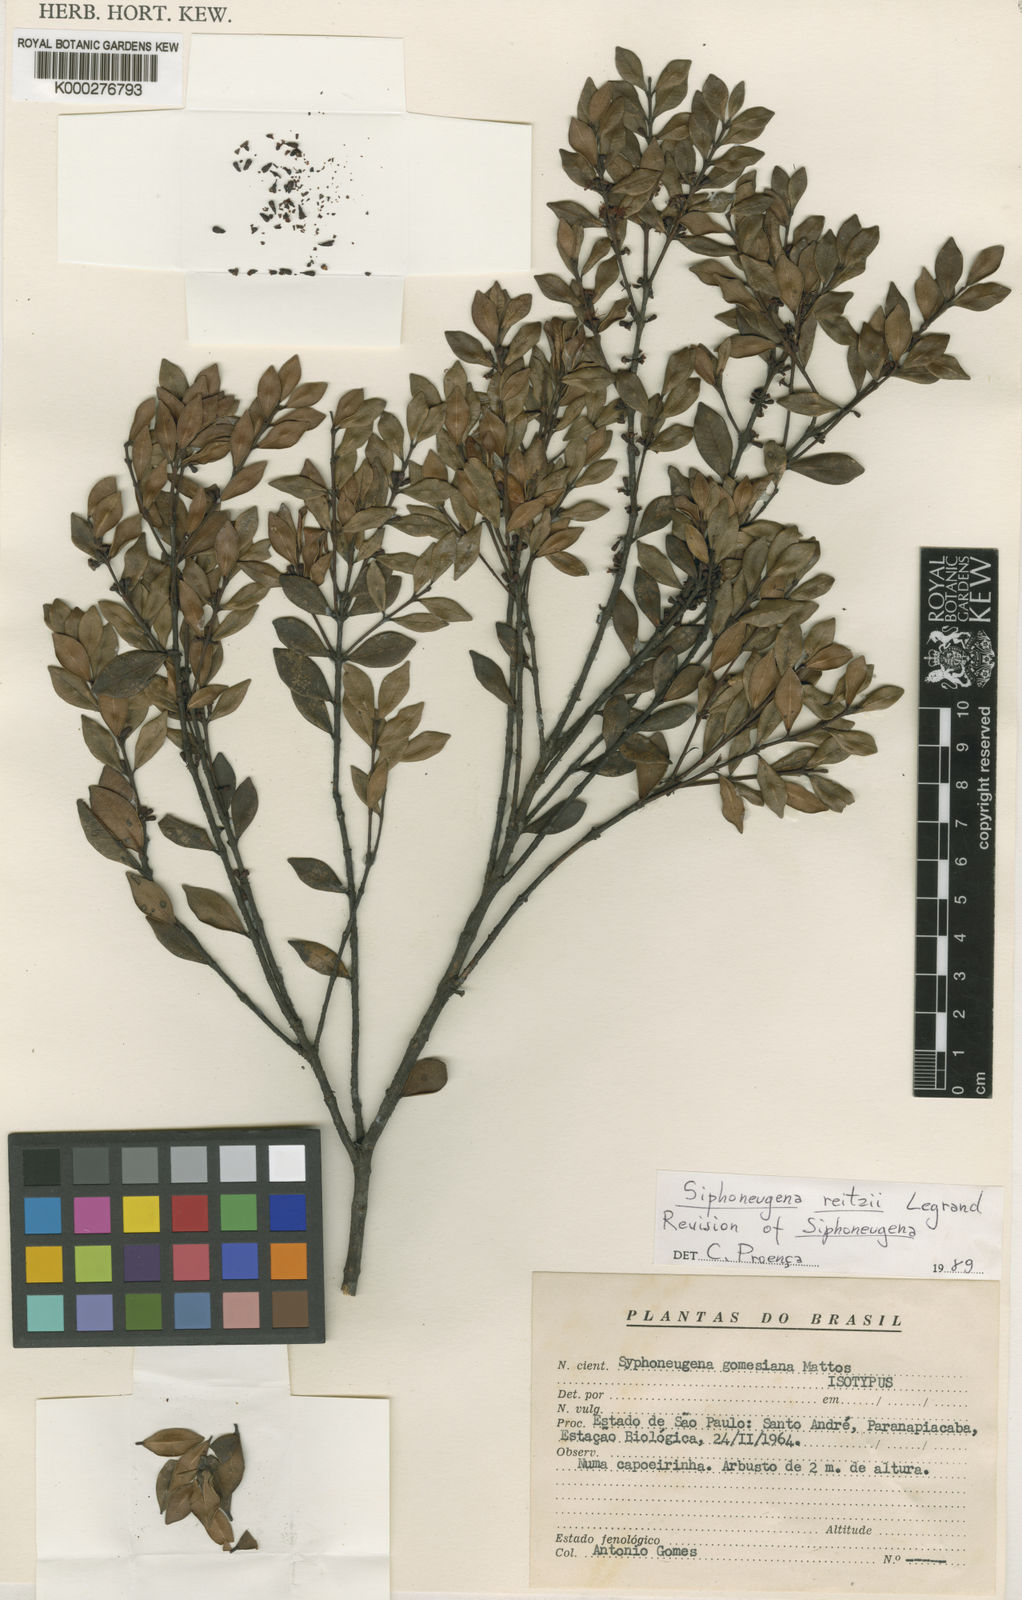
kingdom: Plantae
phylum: Tracheophyta
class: Magnoliopsida
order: Myrtales
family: Myrtaceae
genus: Siphoneugena
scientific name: Siphoneugena reitzii
